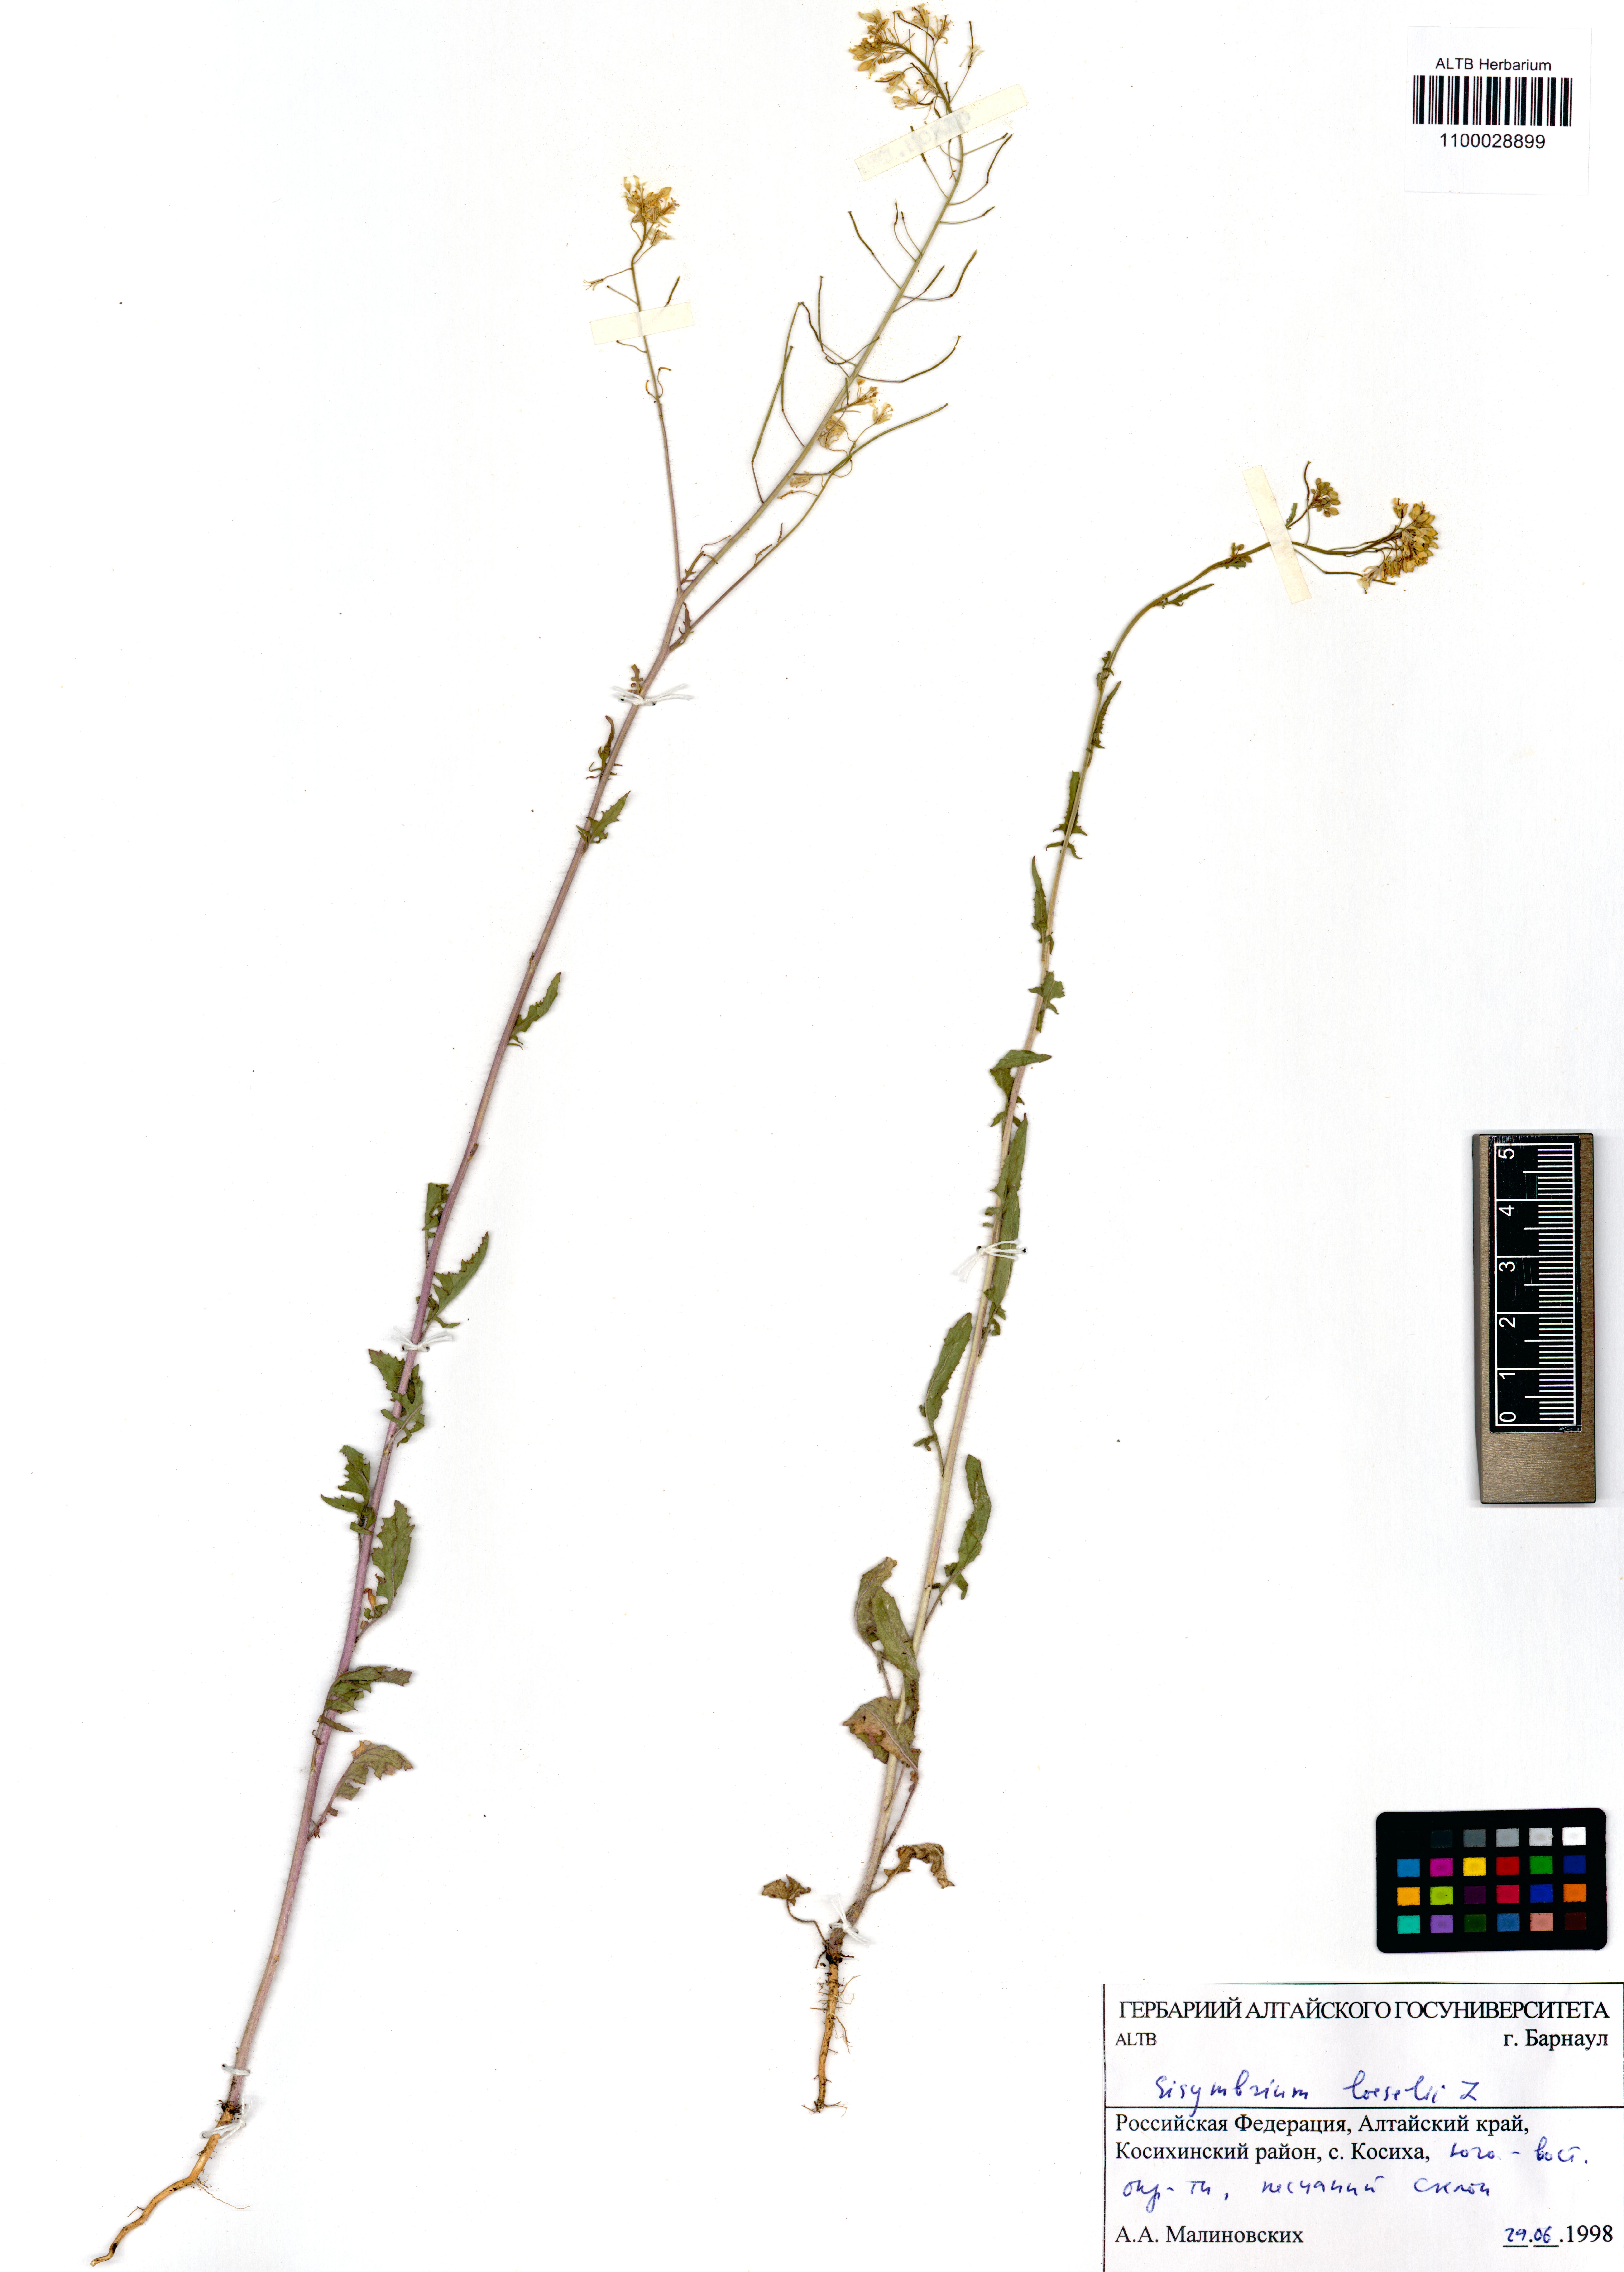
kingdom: Plantae
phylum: Tracheophyta
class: Magnoliopsida
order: Brassicales
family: Brassicaceae
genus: Sisymbrium
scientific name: Sisymbrium loeselii
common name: False london-rocket
